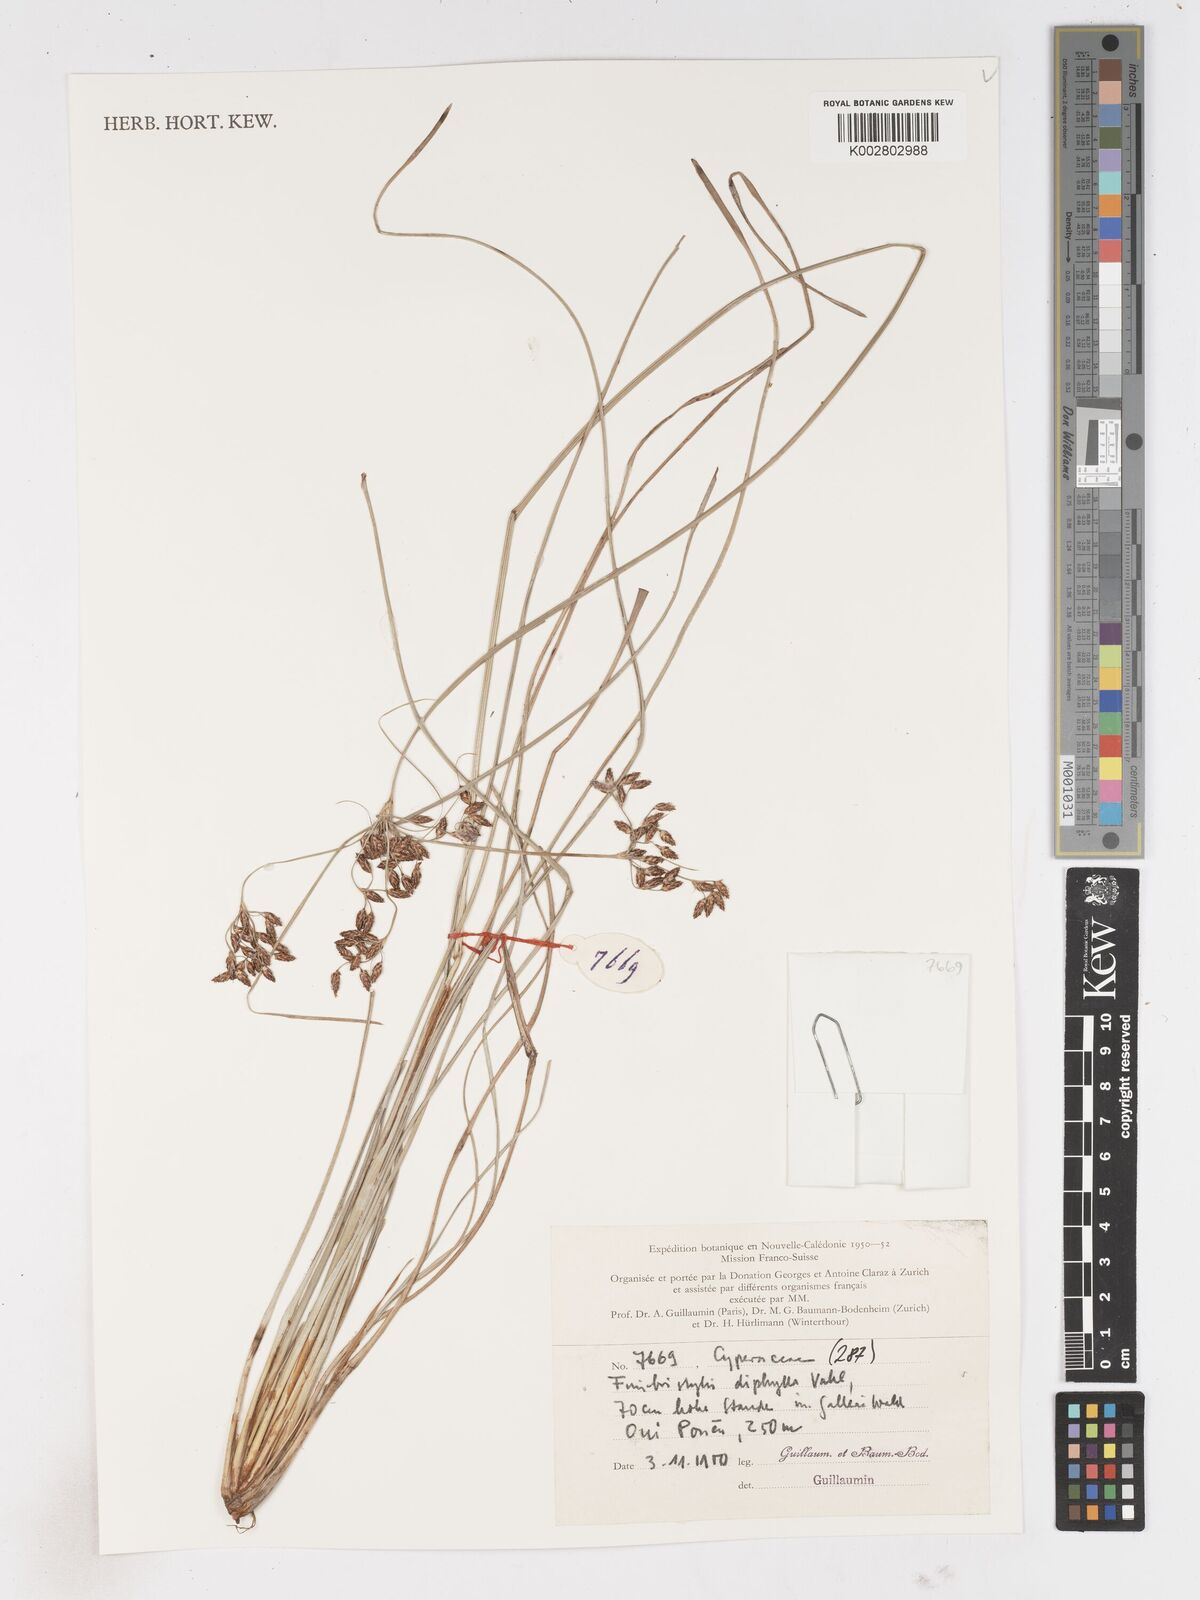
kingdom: Plantae
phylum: Tracheophyta
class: Liliopsida
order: Poales
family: Cyperaceae
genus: Fimbristylis
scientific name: Fimbristylis dichotoma
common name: Forked fimbry
